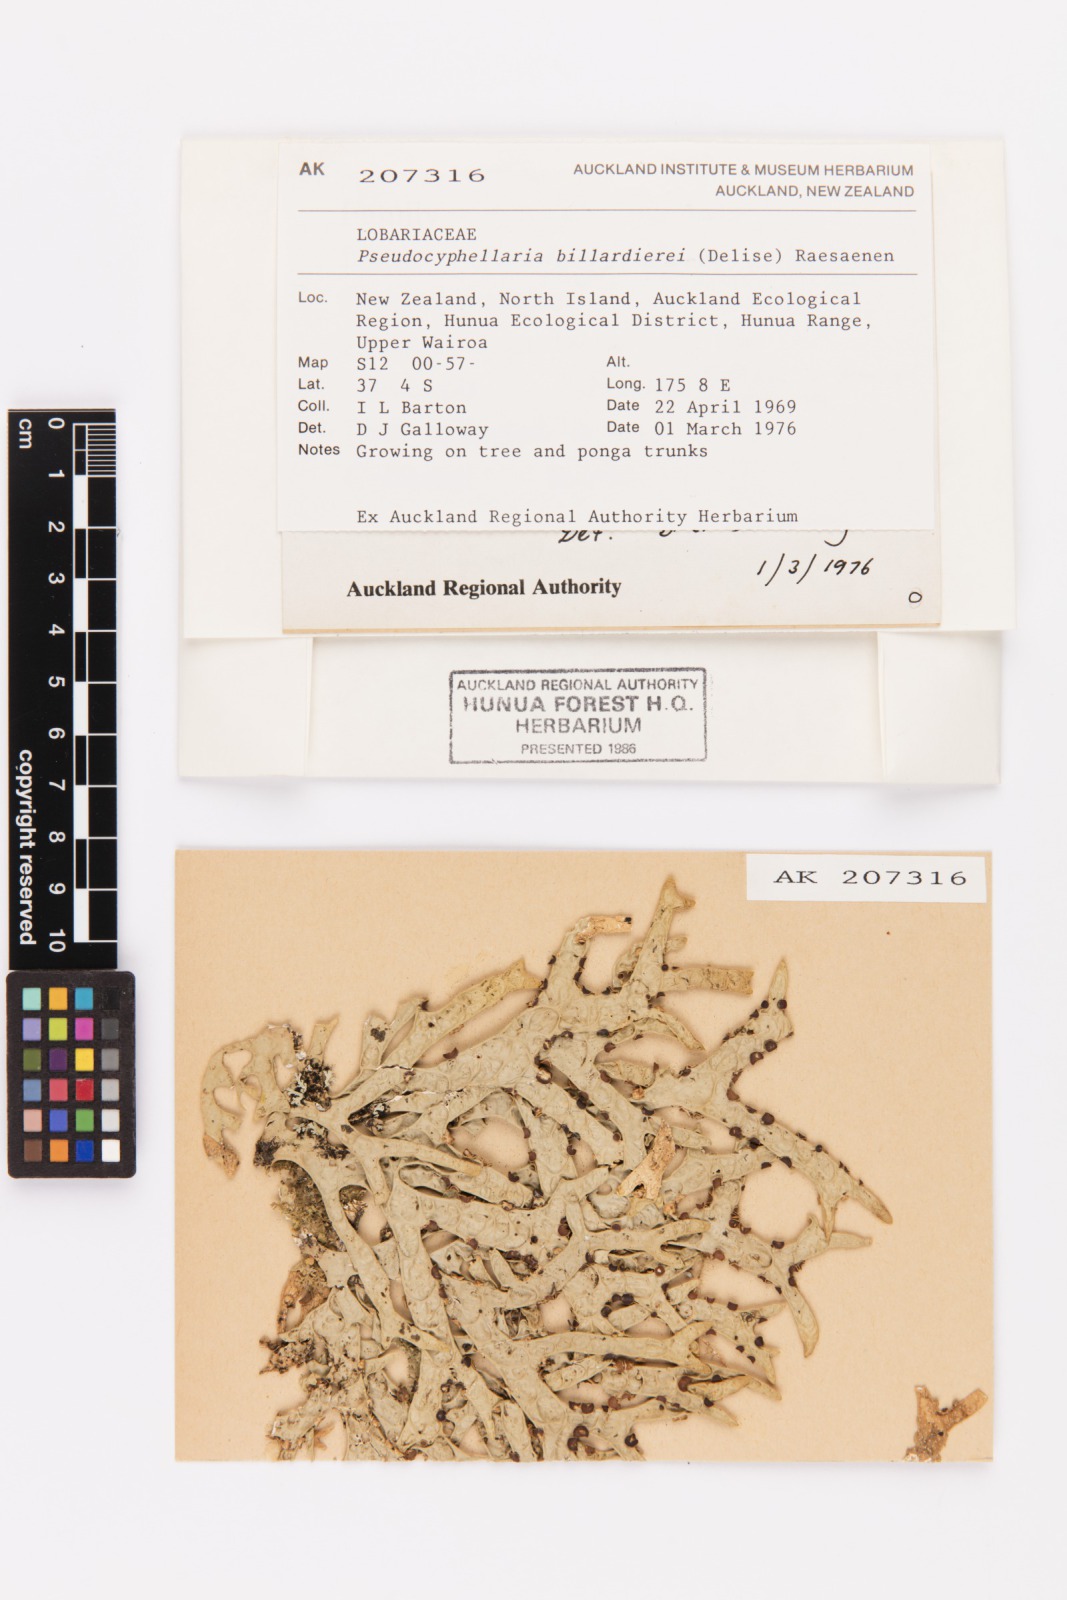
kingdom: Fungi
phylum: Ascomycota
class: Lecanoromycetes
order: Peltigerales
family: Lobariaceae
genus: Pseudocyphellaria
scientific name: Pseudocyphellaria billardierei
